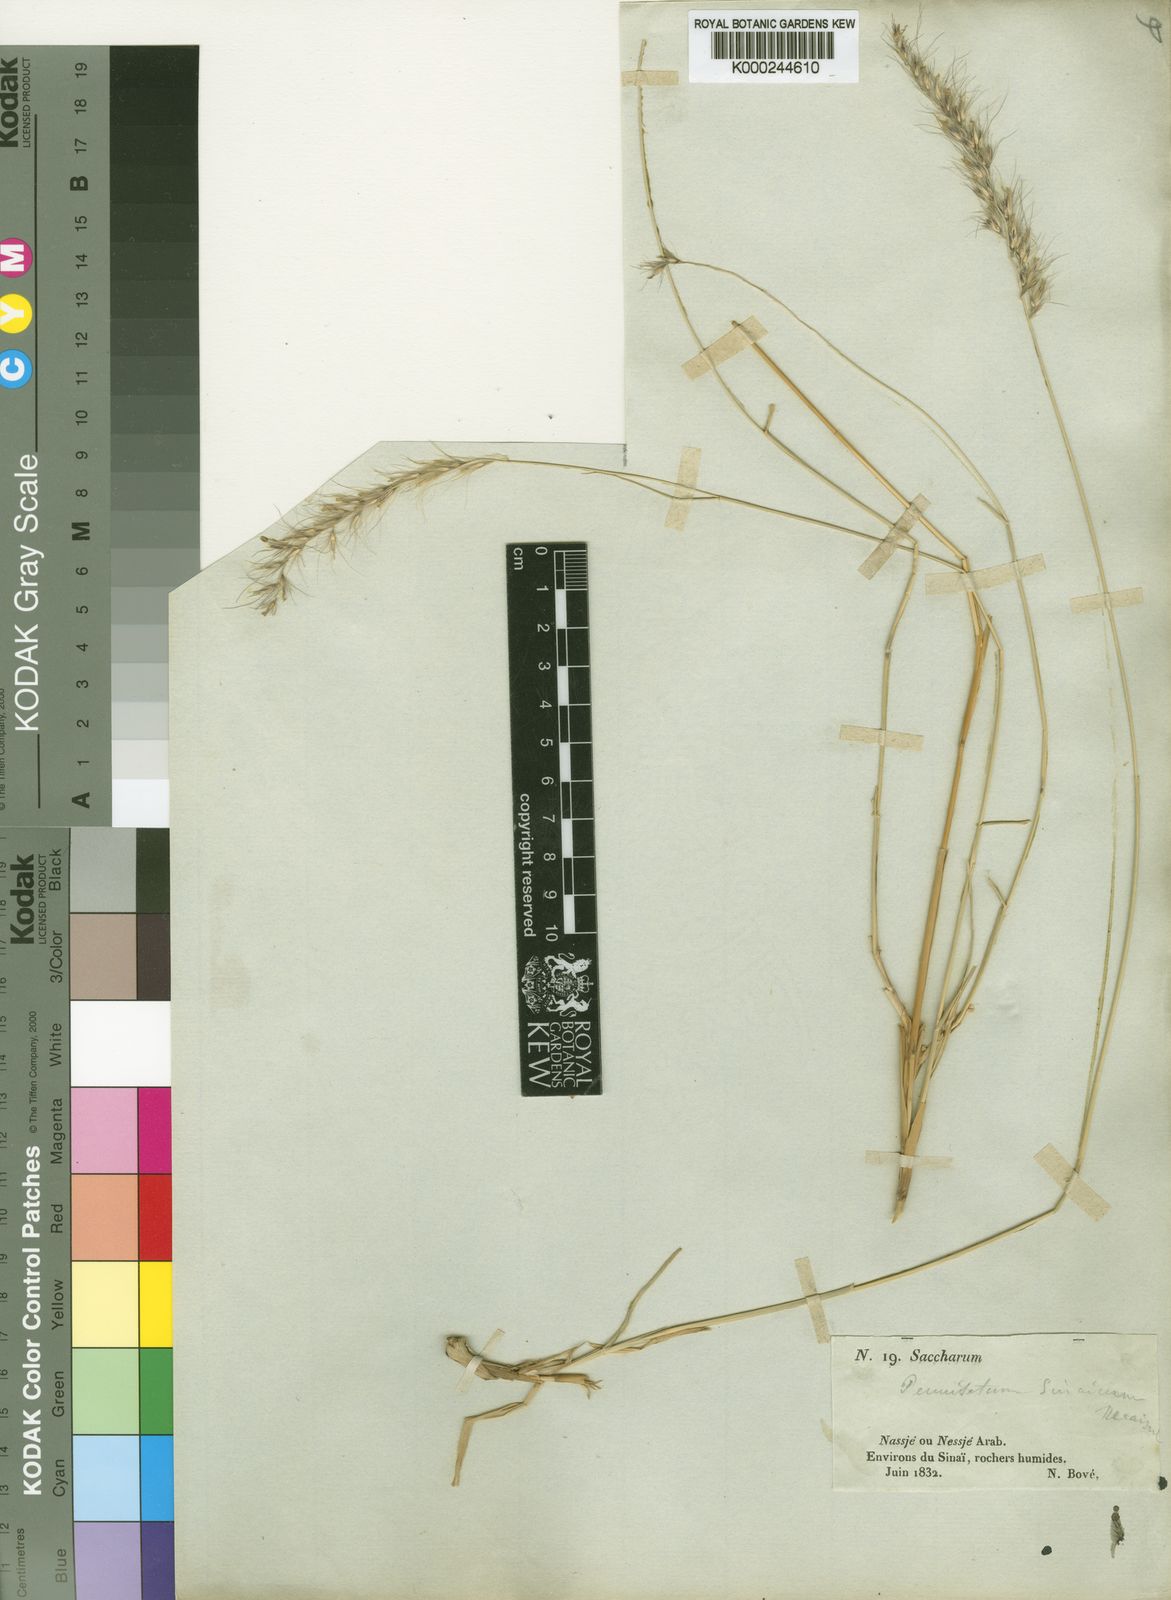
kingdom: Plantae
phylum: Tracheophyta
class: Liliopsida
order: Poales
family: Poaceae
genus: Cenchrus
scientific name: Cenchrus orientalis
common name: Oriental fountain grass
